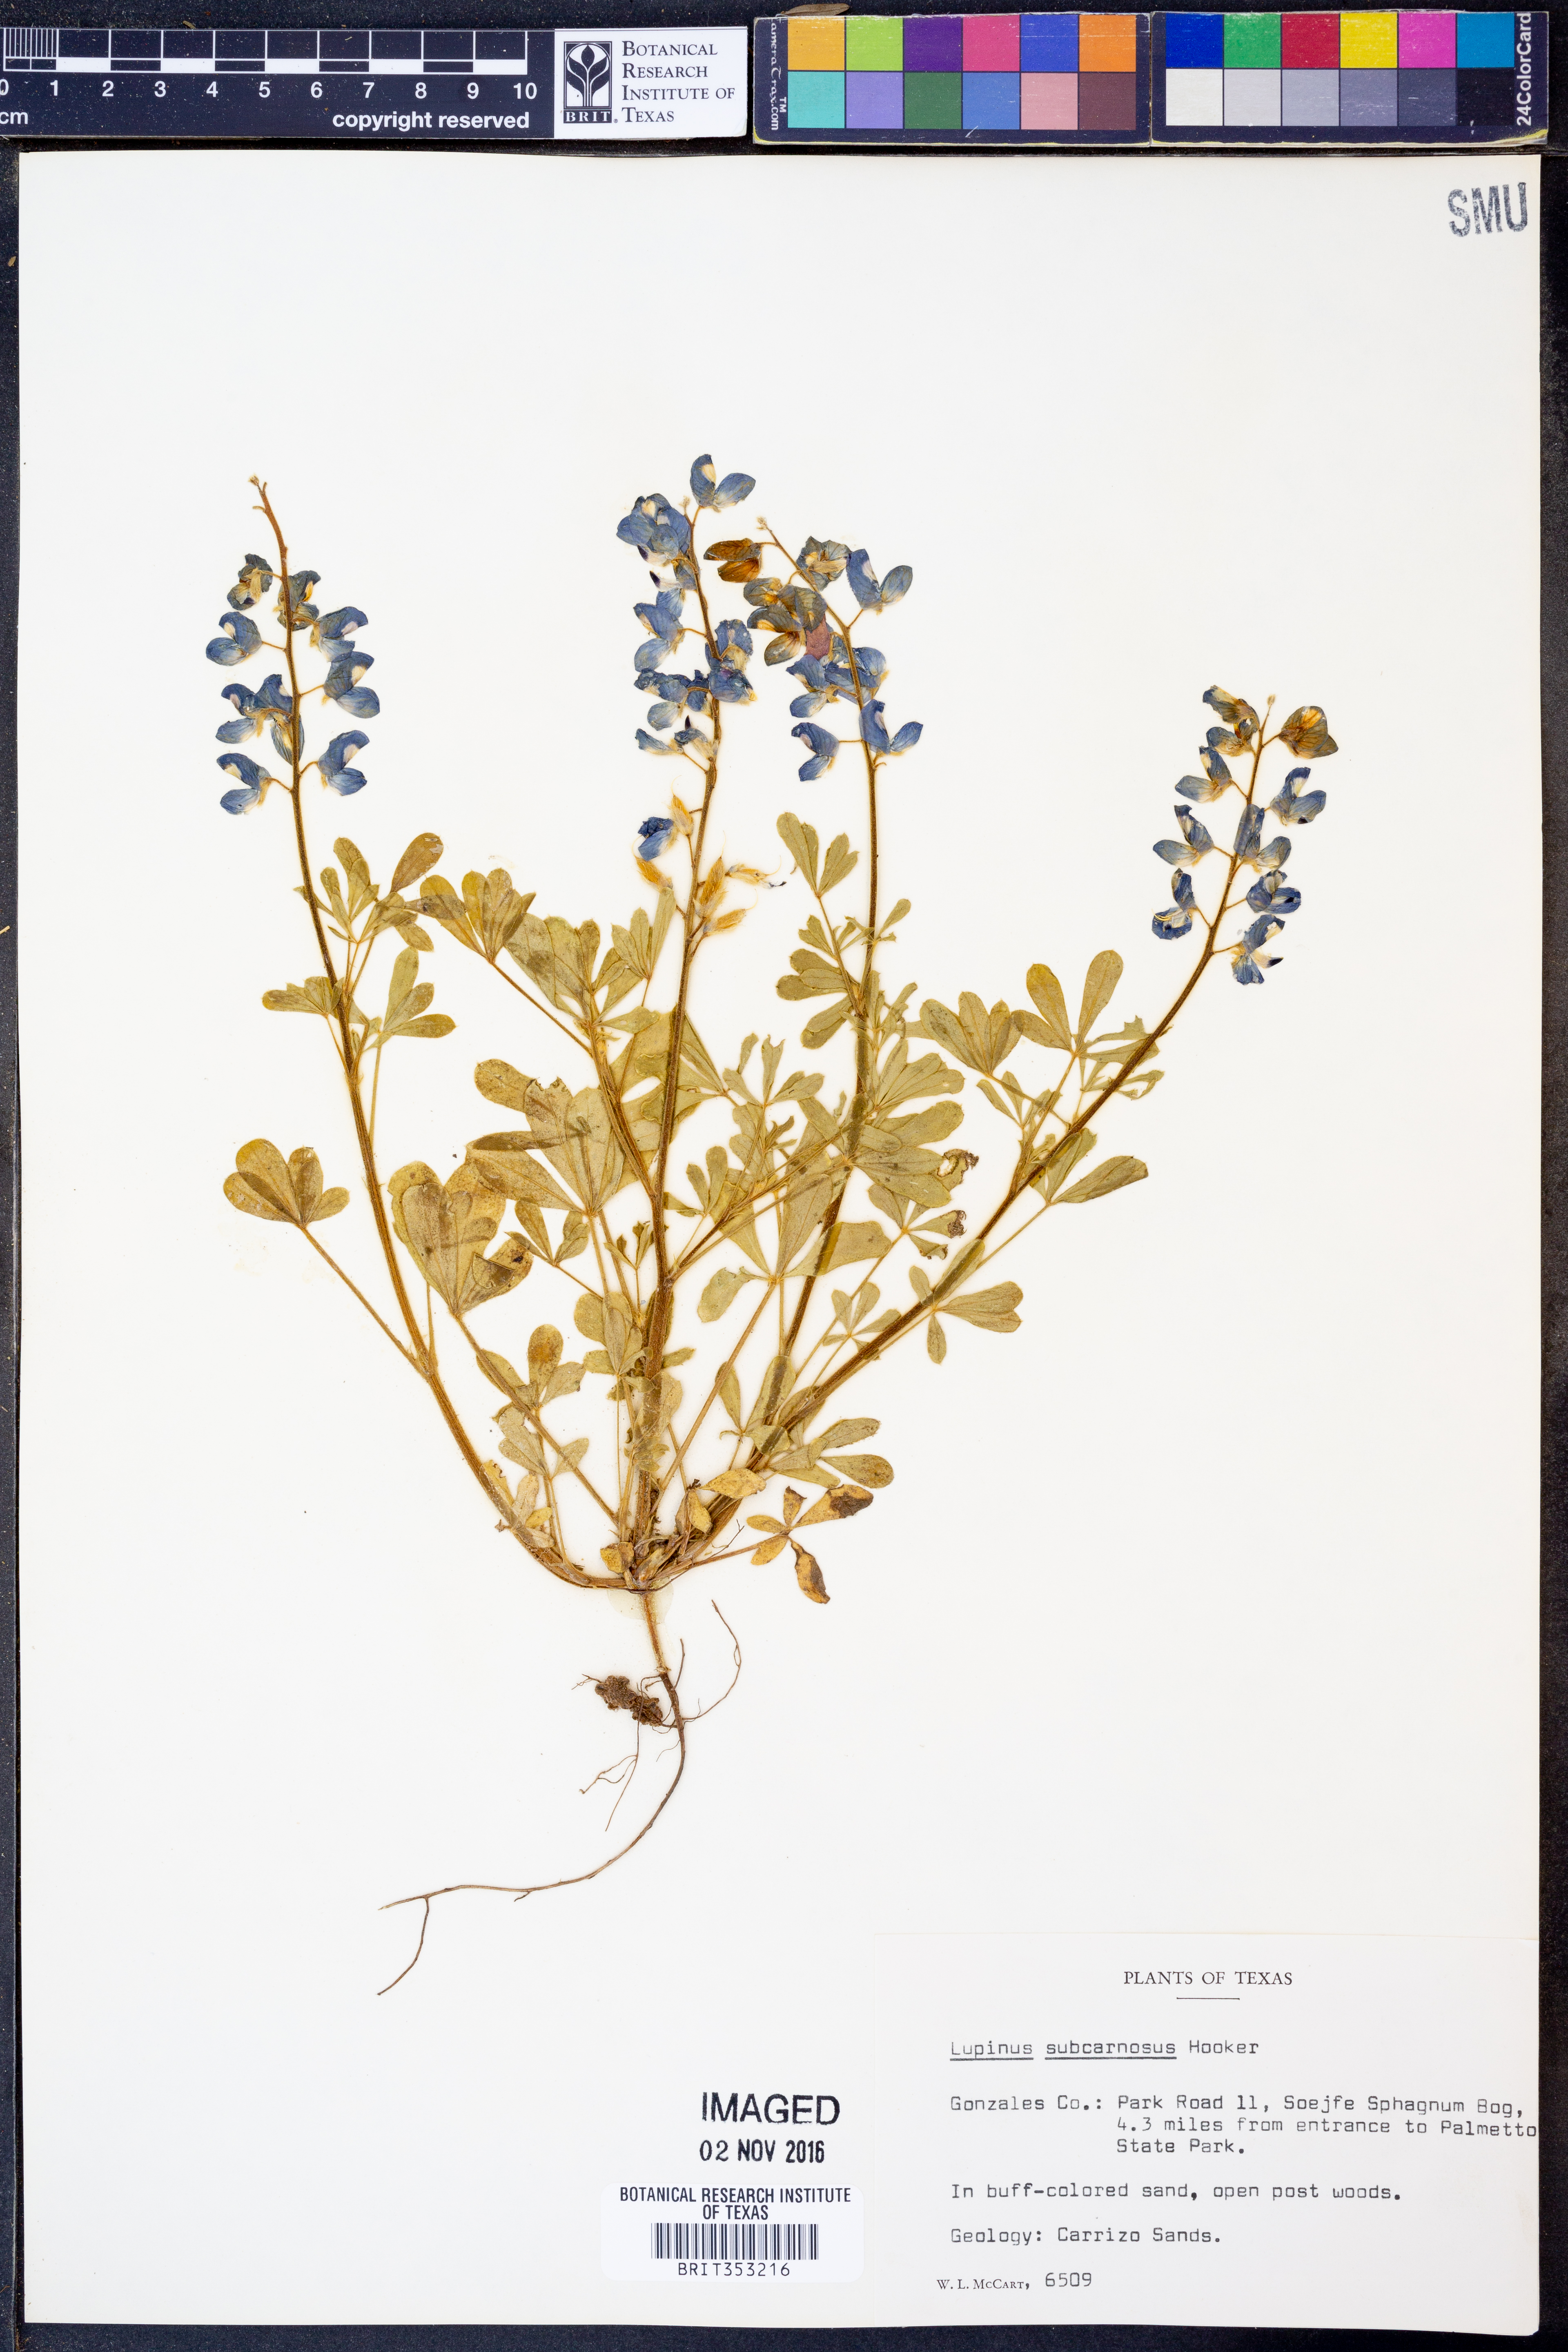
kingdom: Plantae
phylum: Tracheophyta
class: Magnoliopsida
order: Fabales
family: Fabaceae
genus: Lupinus
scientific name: Lupinus subcarnosus
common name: Texas bluebonnet
